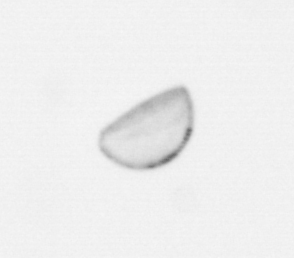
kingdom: Chromista
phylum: Ochrophyta
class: Bacillariophyceae
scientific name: Bacillariophyceae
